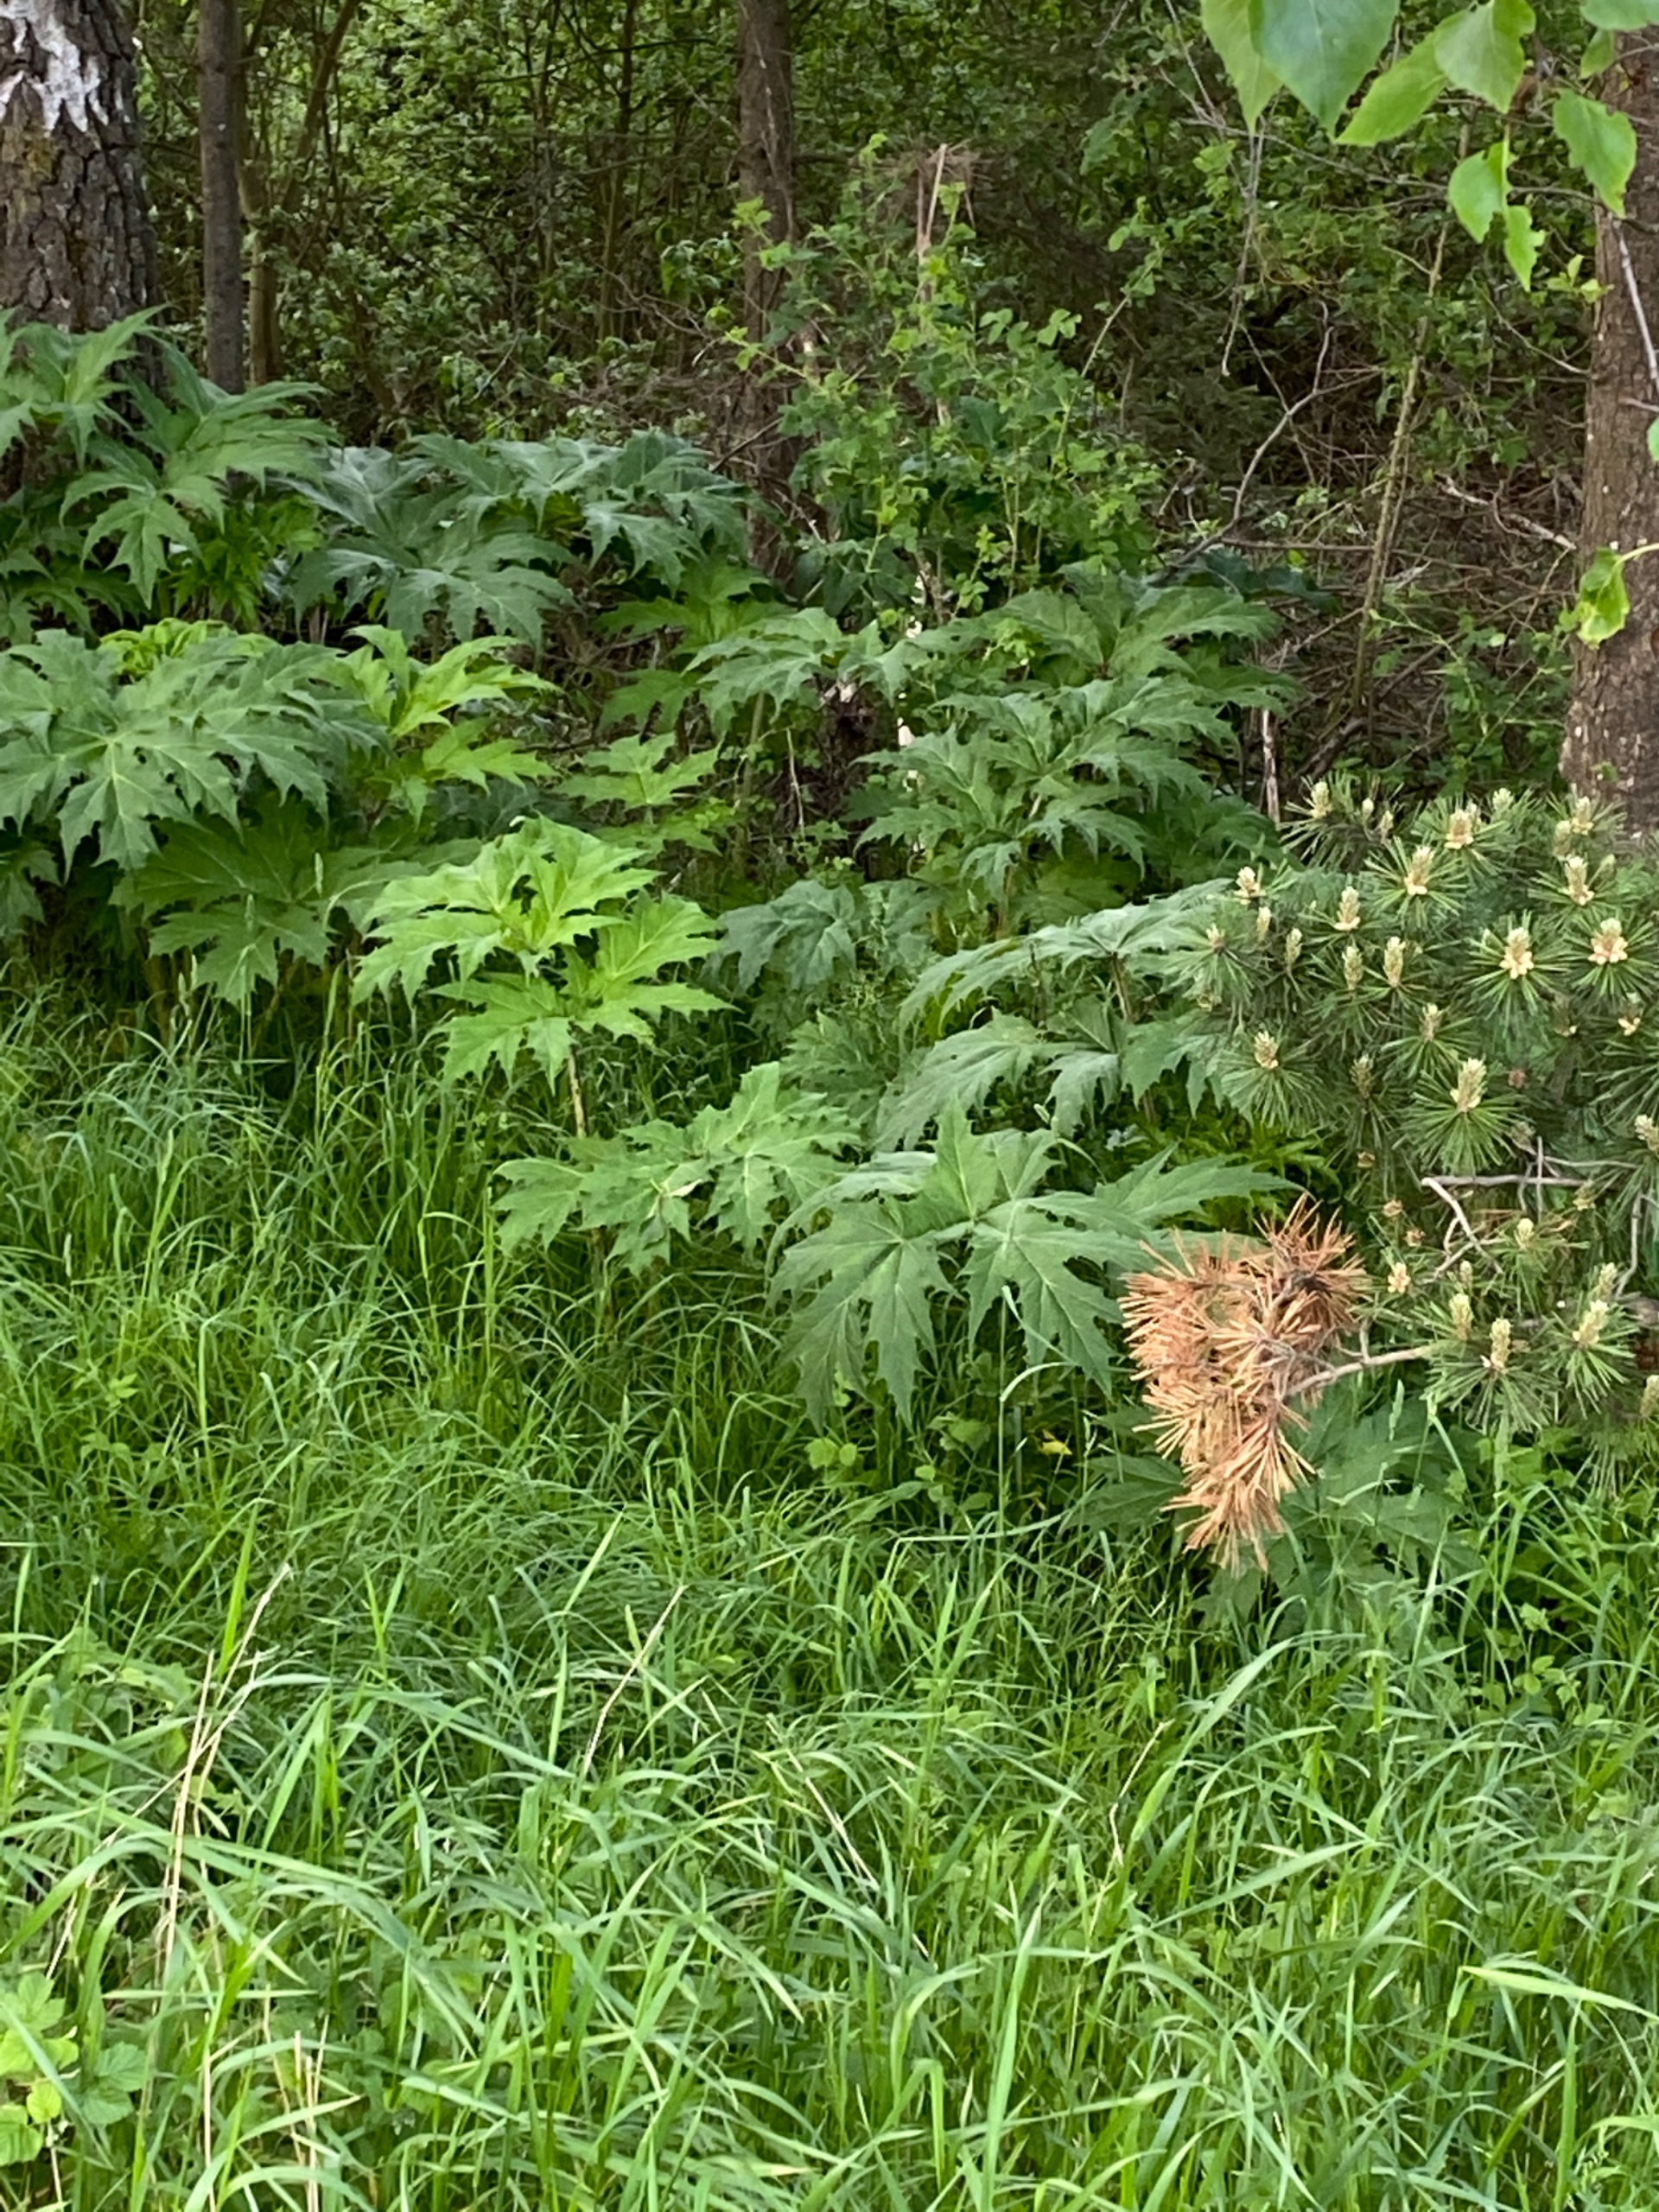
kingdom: Plantae
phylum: Tracheophyta
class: Magnoliopsida
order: Apiales
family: Apiaceae
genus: Heracleum
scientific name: Heracleum mantegazzianum
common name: Kæmpe-bjørneklo
